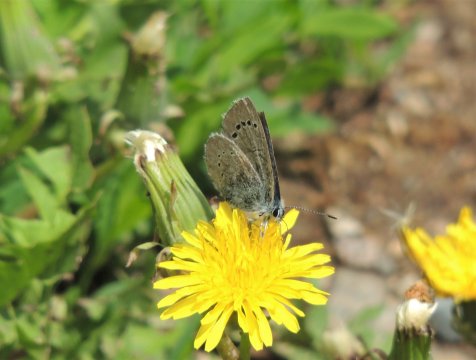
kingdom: Animalia
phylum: Arthropoda
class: Insecta
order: Lepidoptera
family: Lycaenidae
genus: Glaucopsyche
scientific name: Glaucopsyche lygdamus
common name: Silvery Blue
